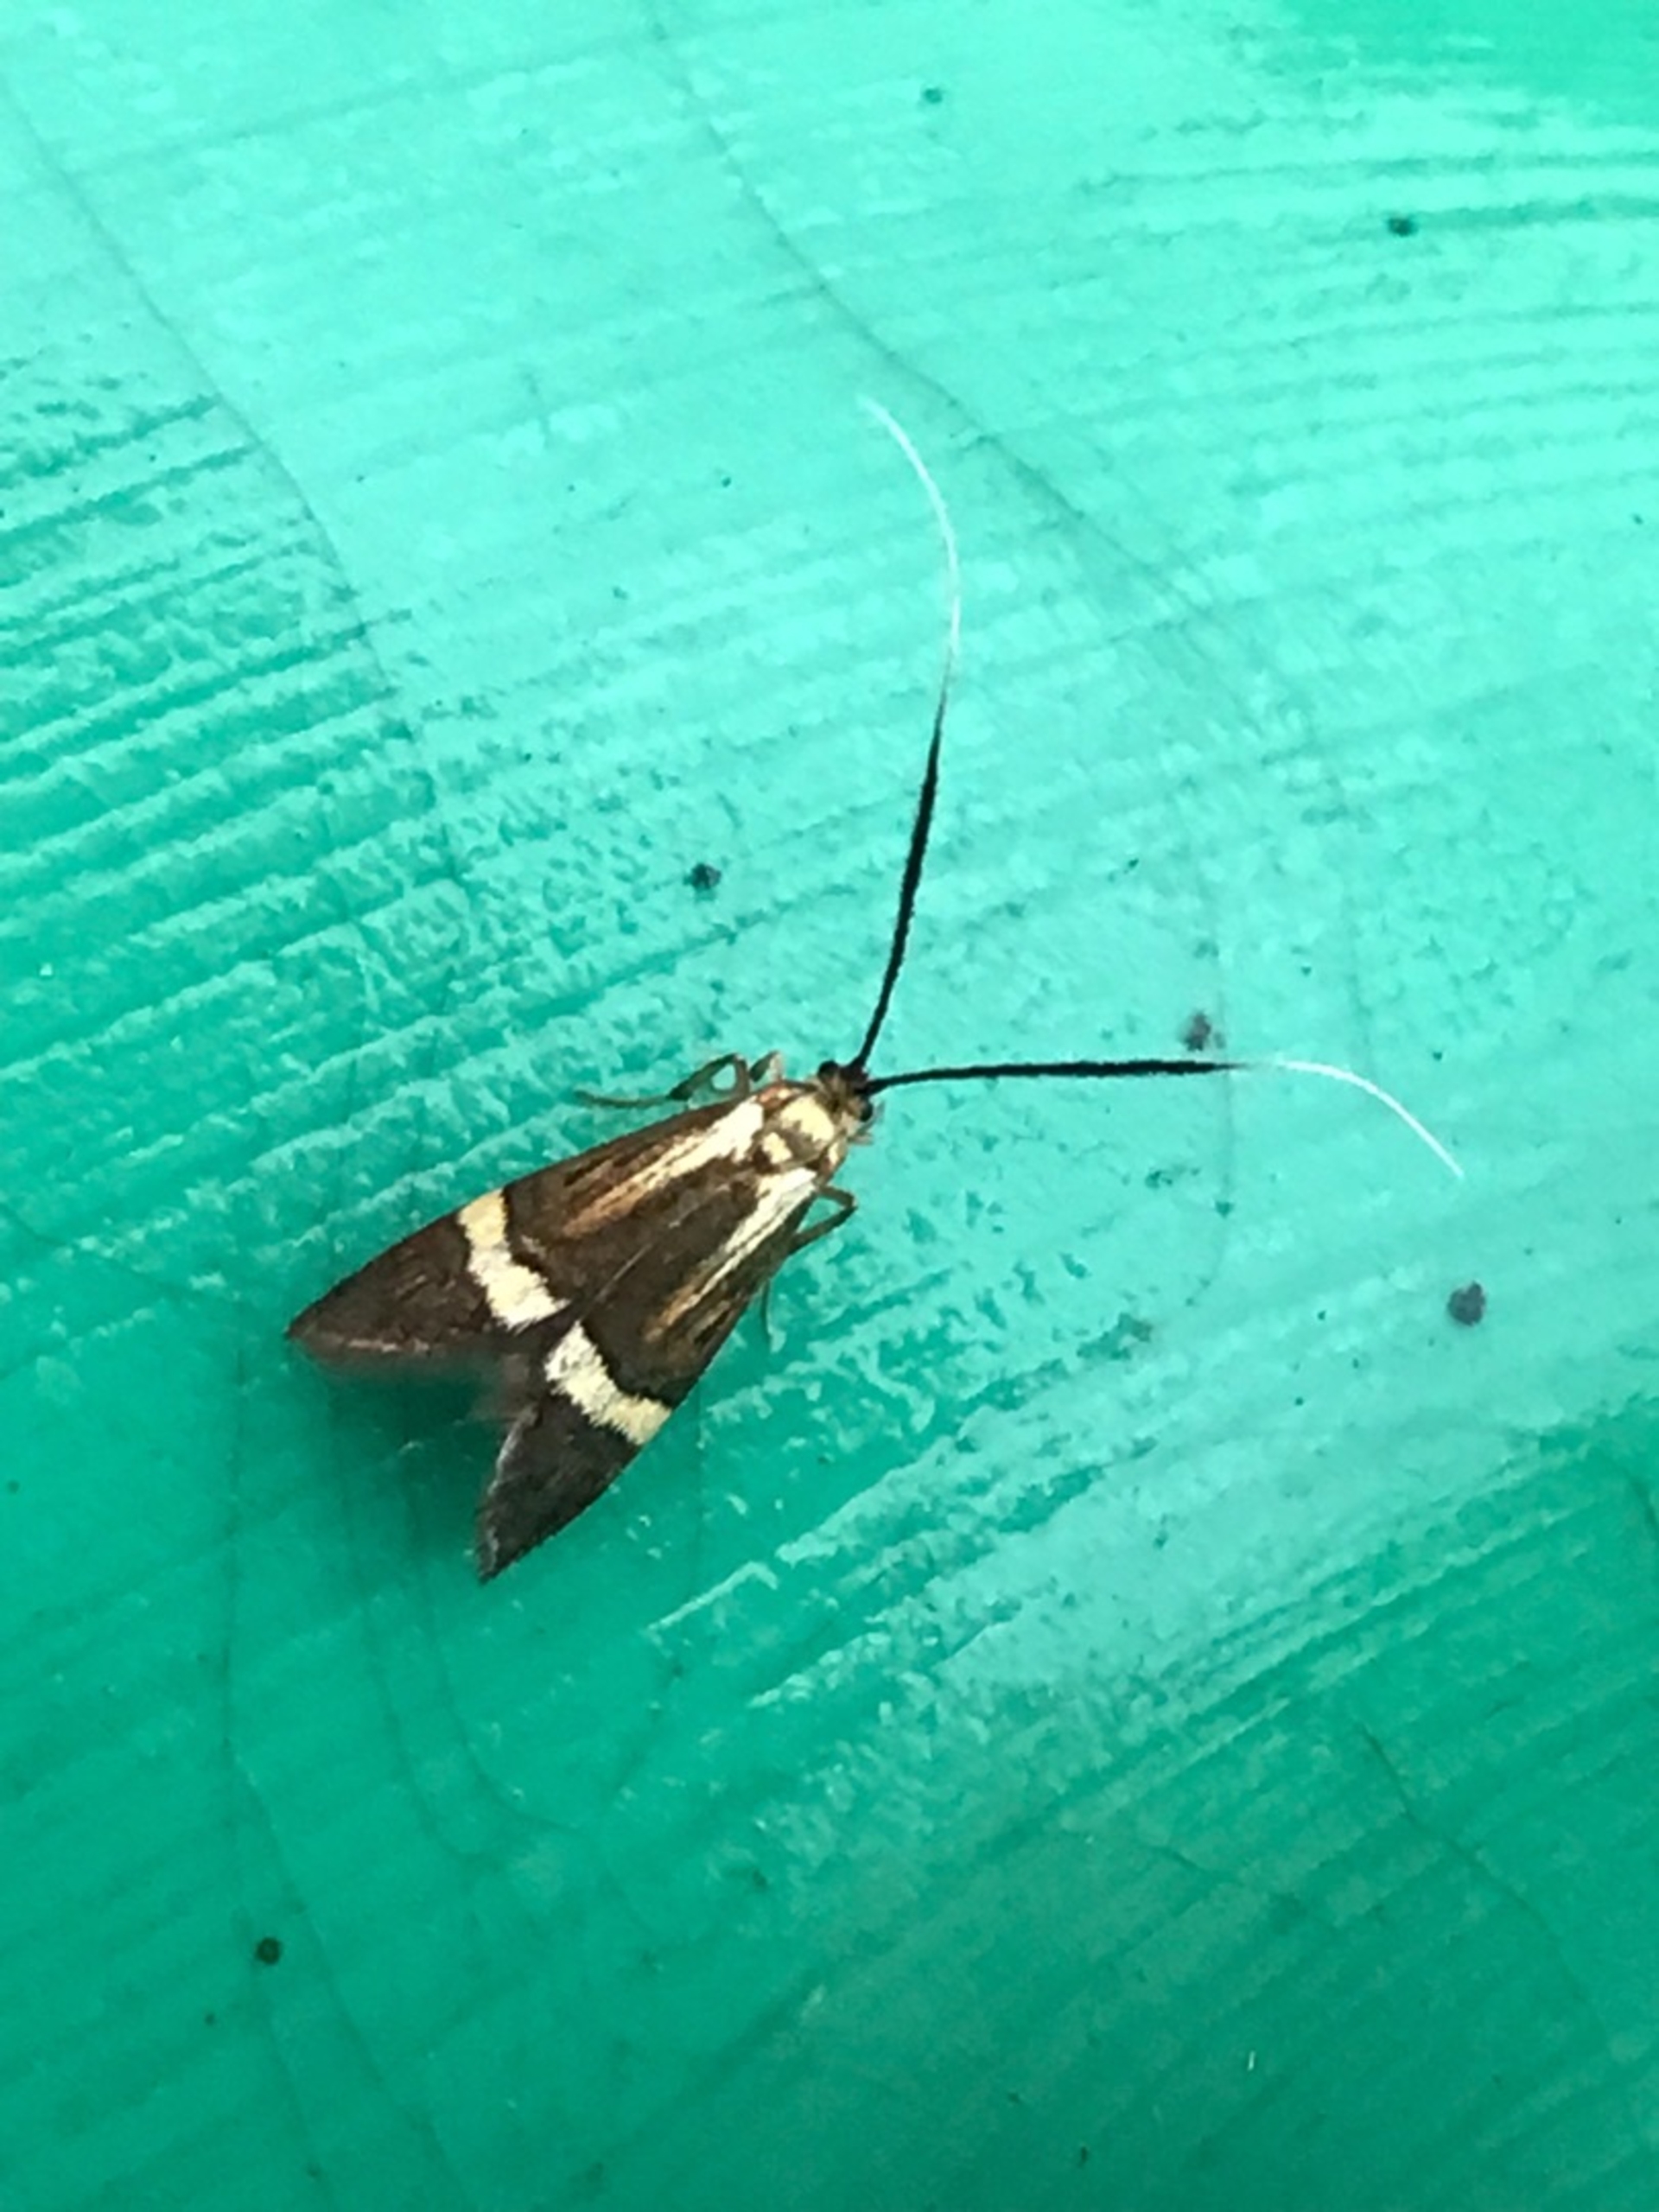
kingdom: Animalia
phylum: Arthropoda
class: Insecta
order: Lepidoptera
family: Adelidae
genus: Nemophora
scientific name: Nemophora degeerella
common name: Løvskovslanghornsmøl
